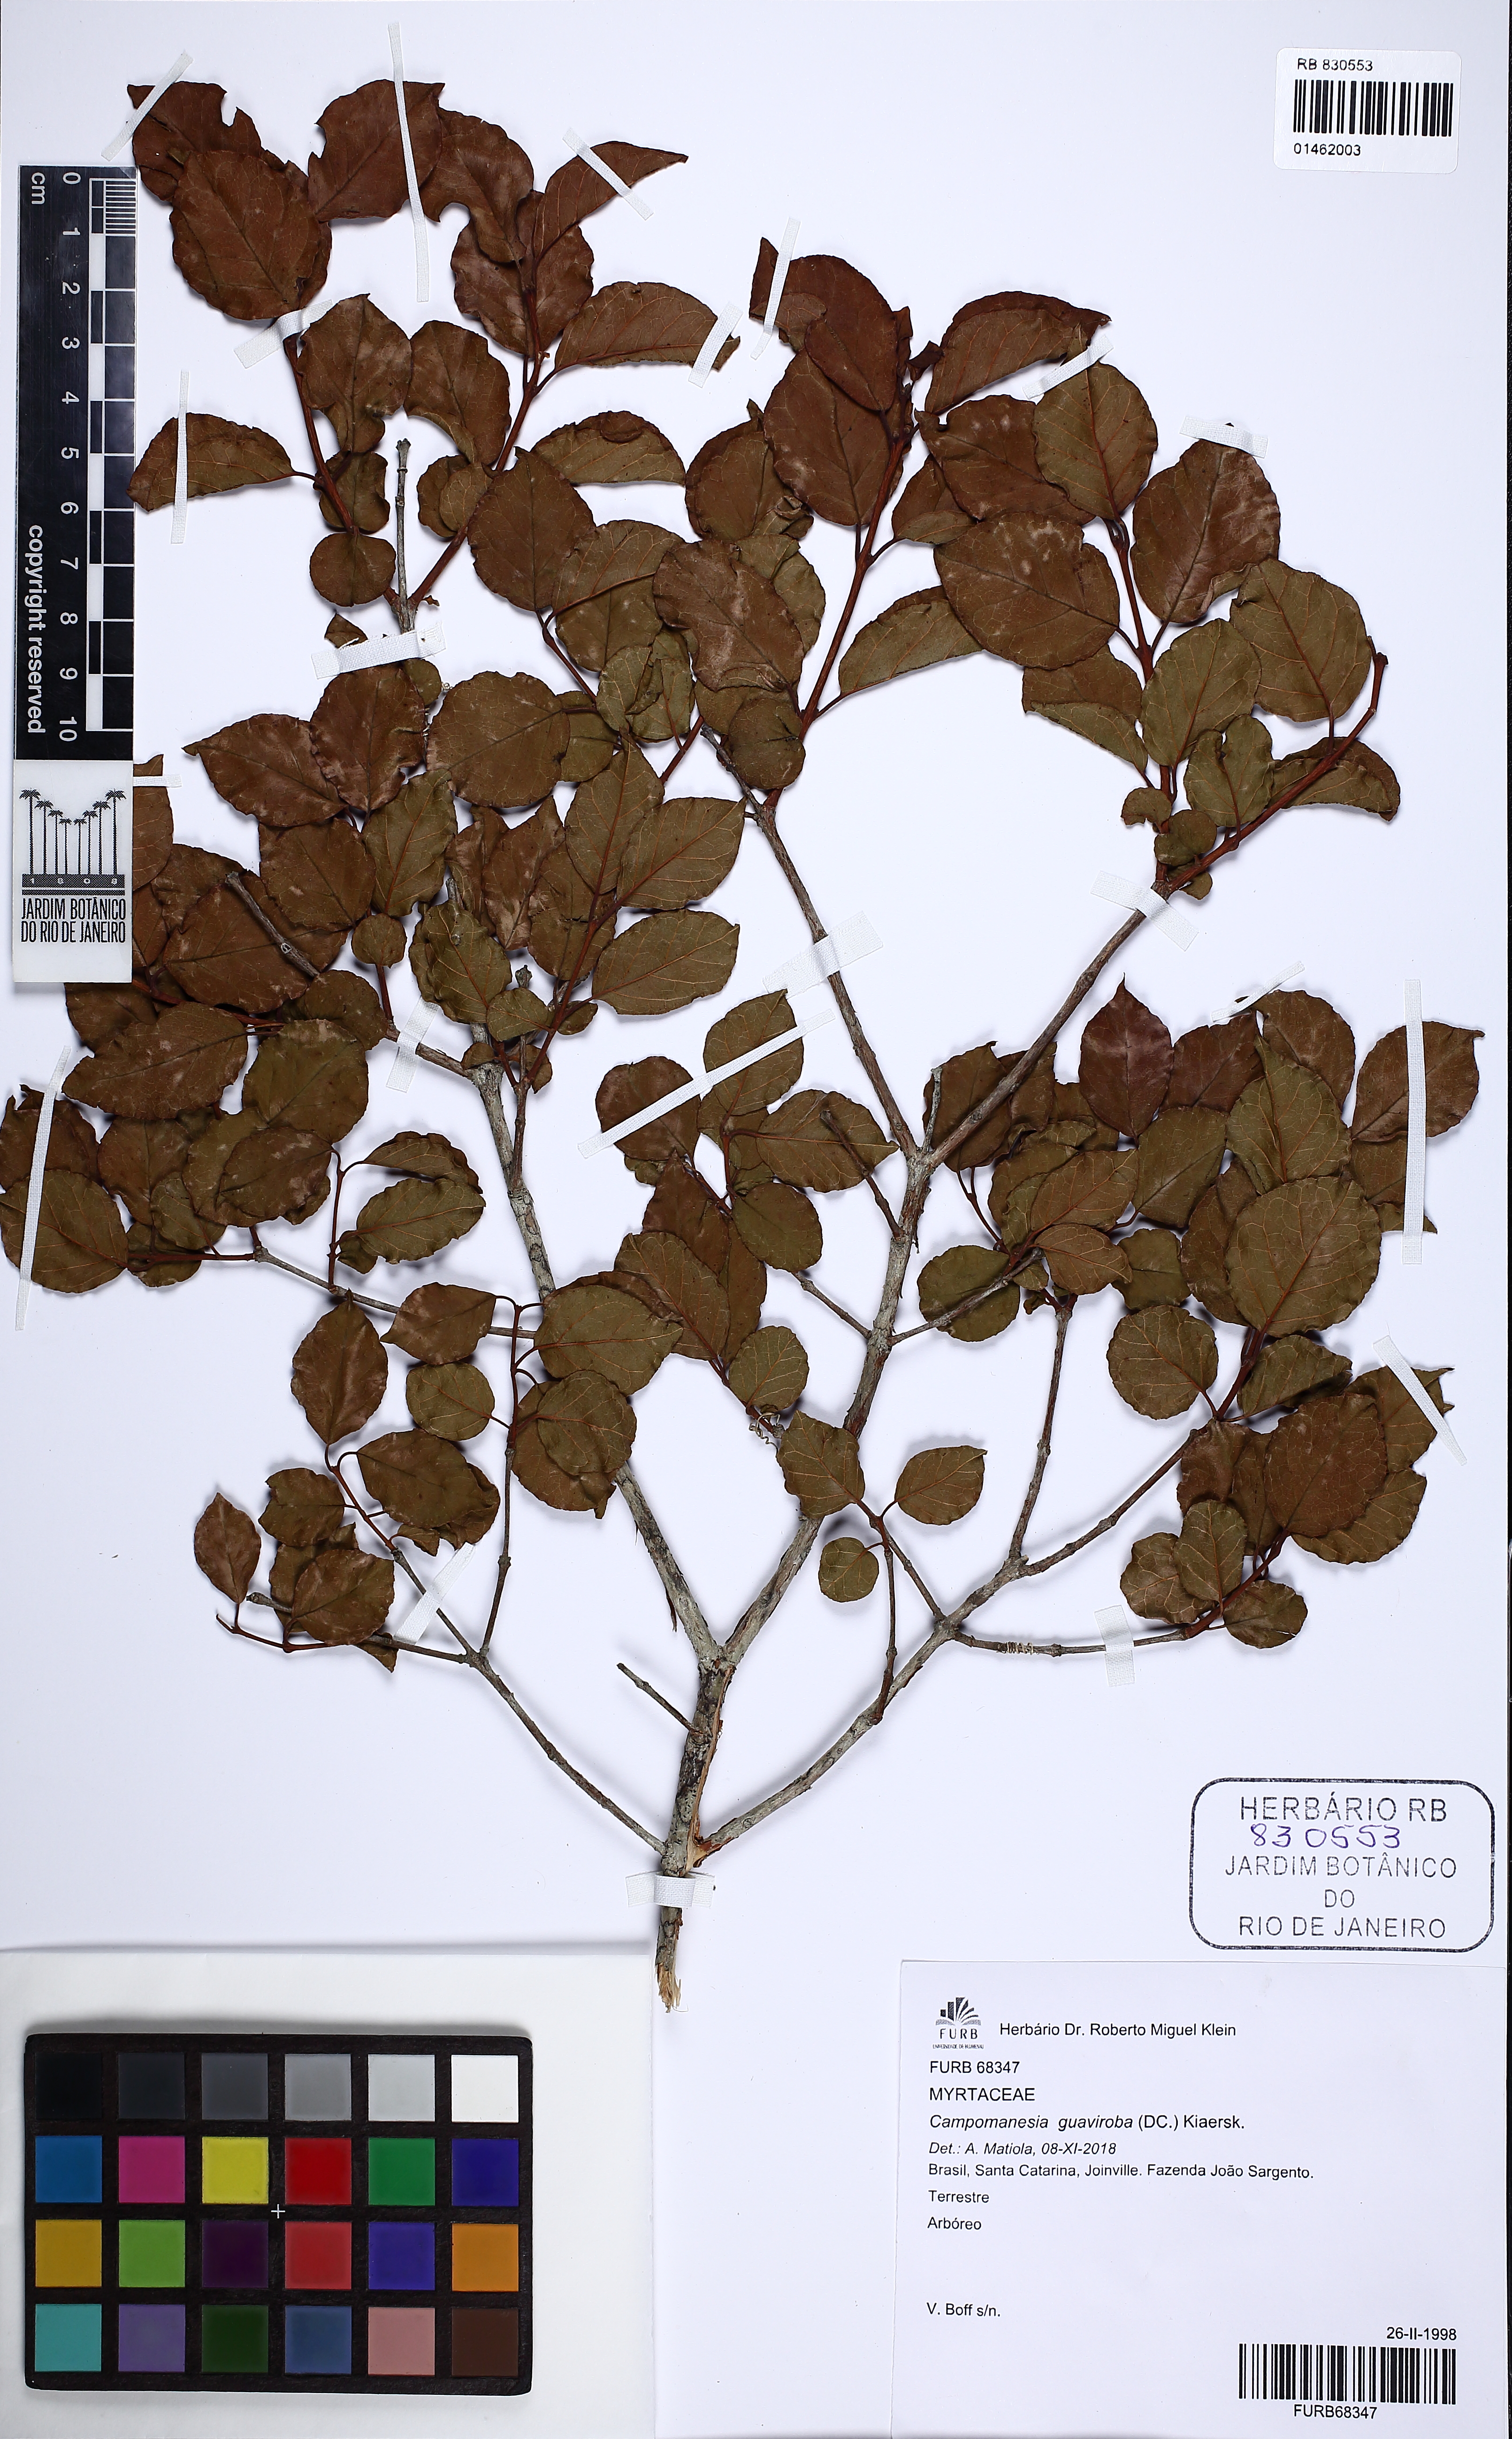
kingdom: Plantae
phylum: Tracheophyta
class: Magnoliopsida
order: Myrtales
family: Myrtaceae
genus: Campomanesia
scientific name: Campomanesia guaviroba
